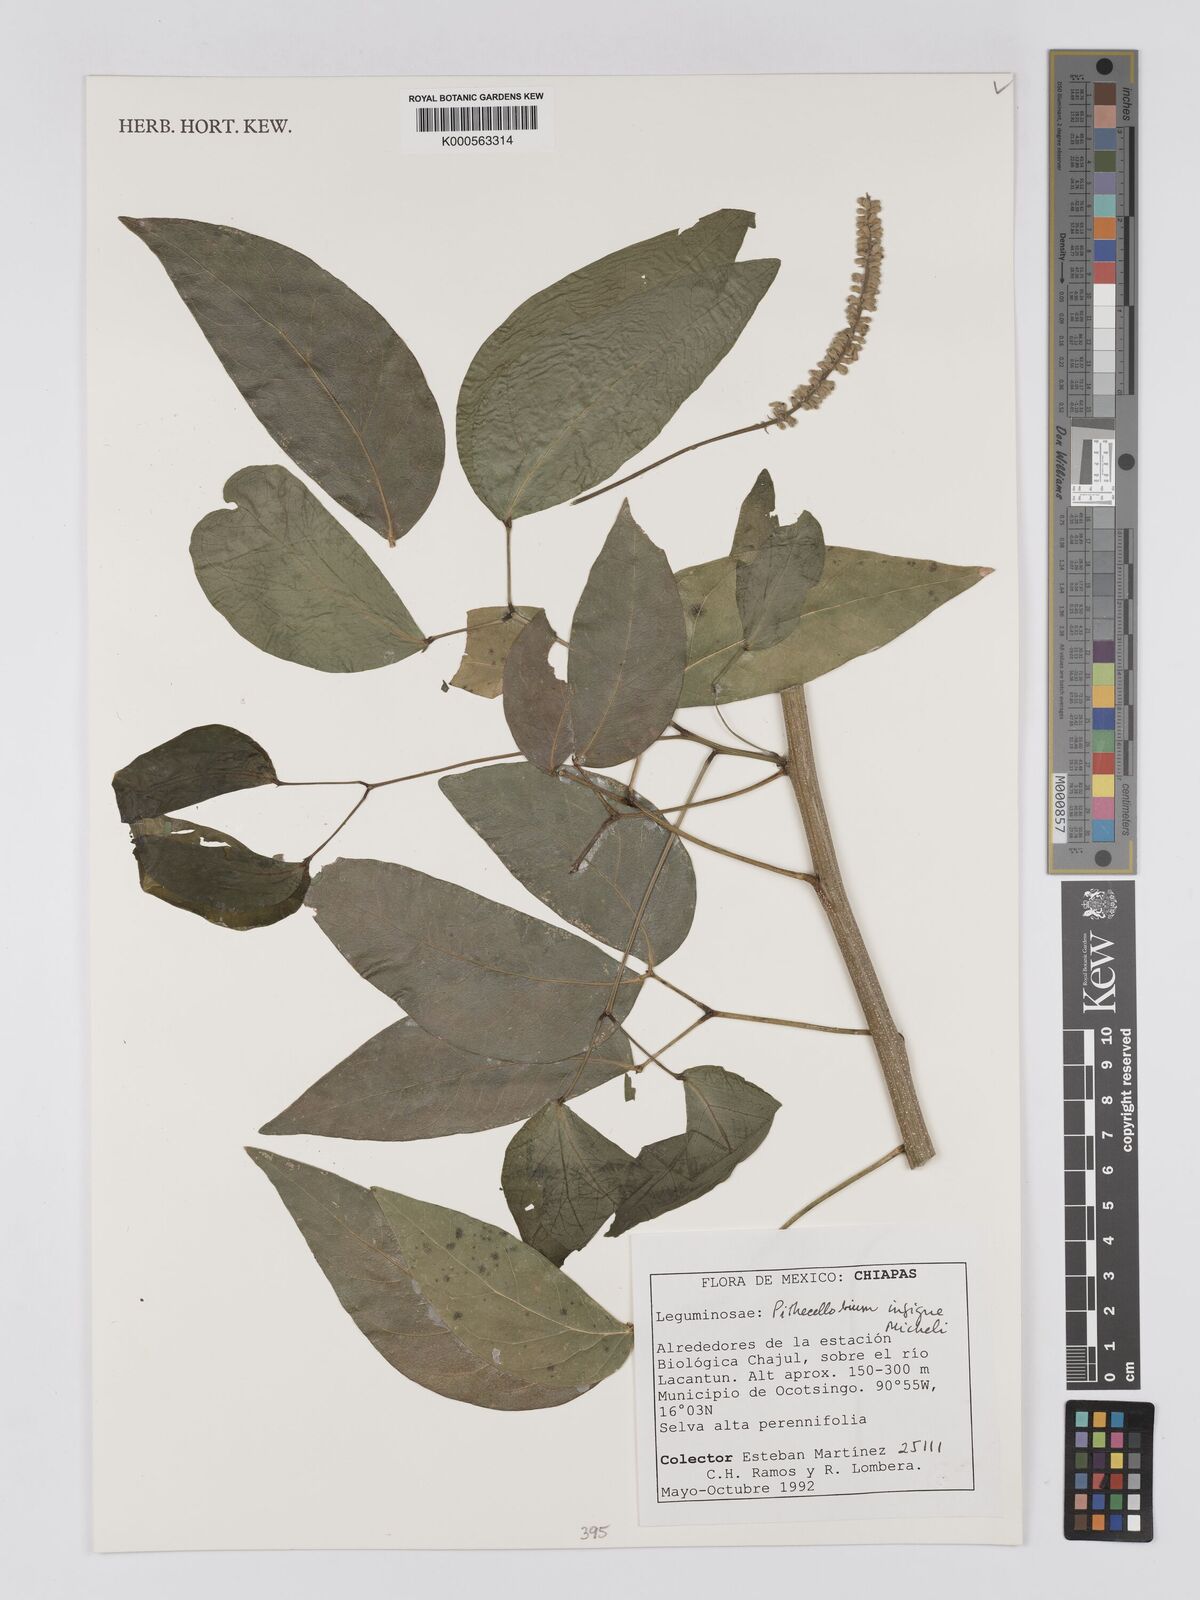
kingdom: Plantae
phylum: Tracheophyta
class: Magnoliopsida
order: Fabales
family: Fabaceae
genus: Pithecellobium
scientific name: Pithecellobium lanceolatum
